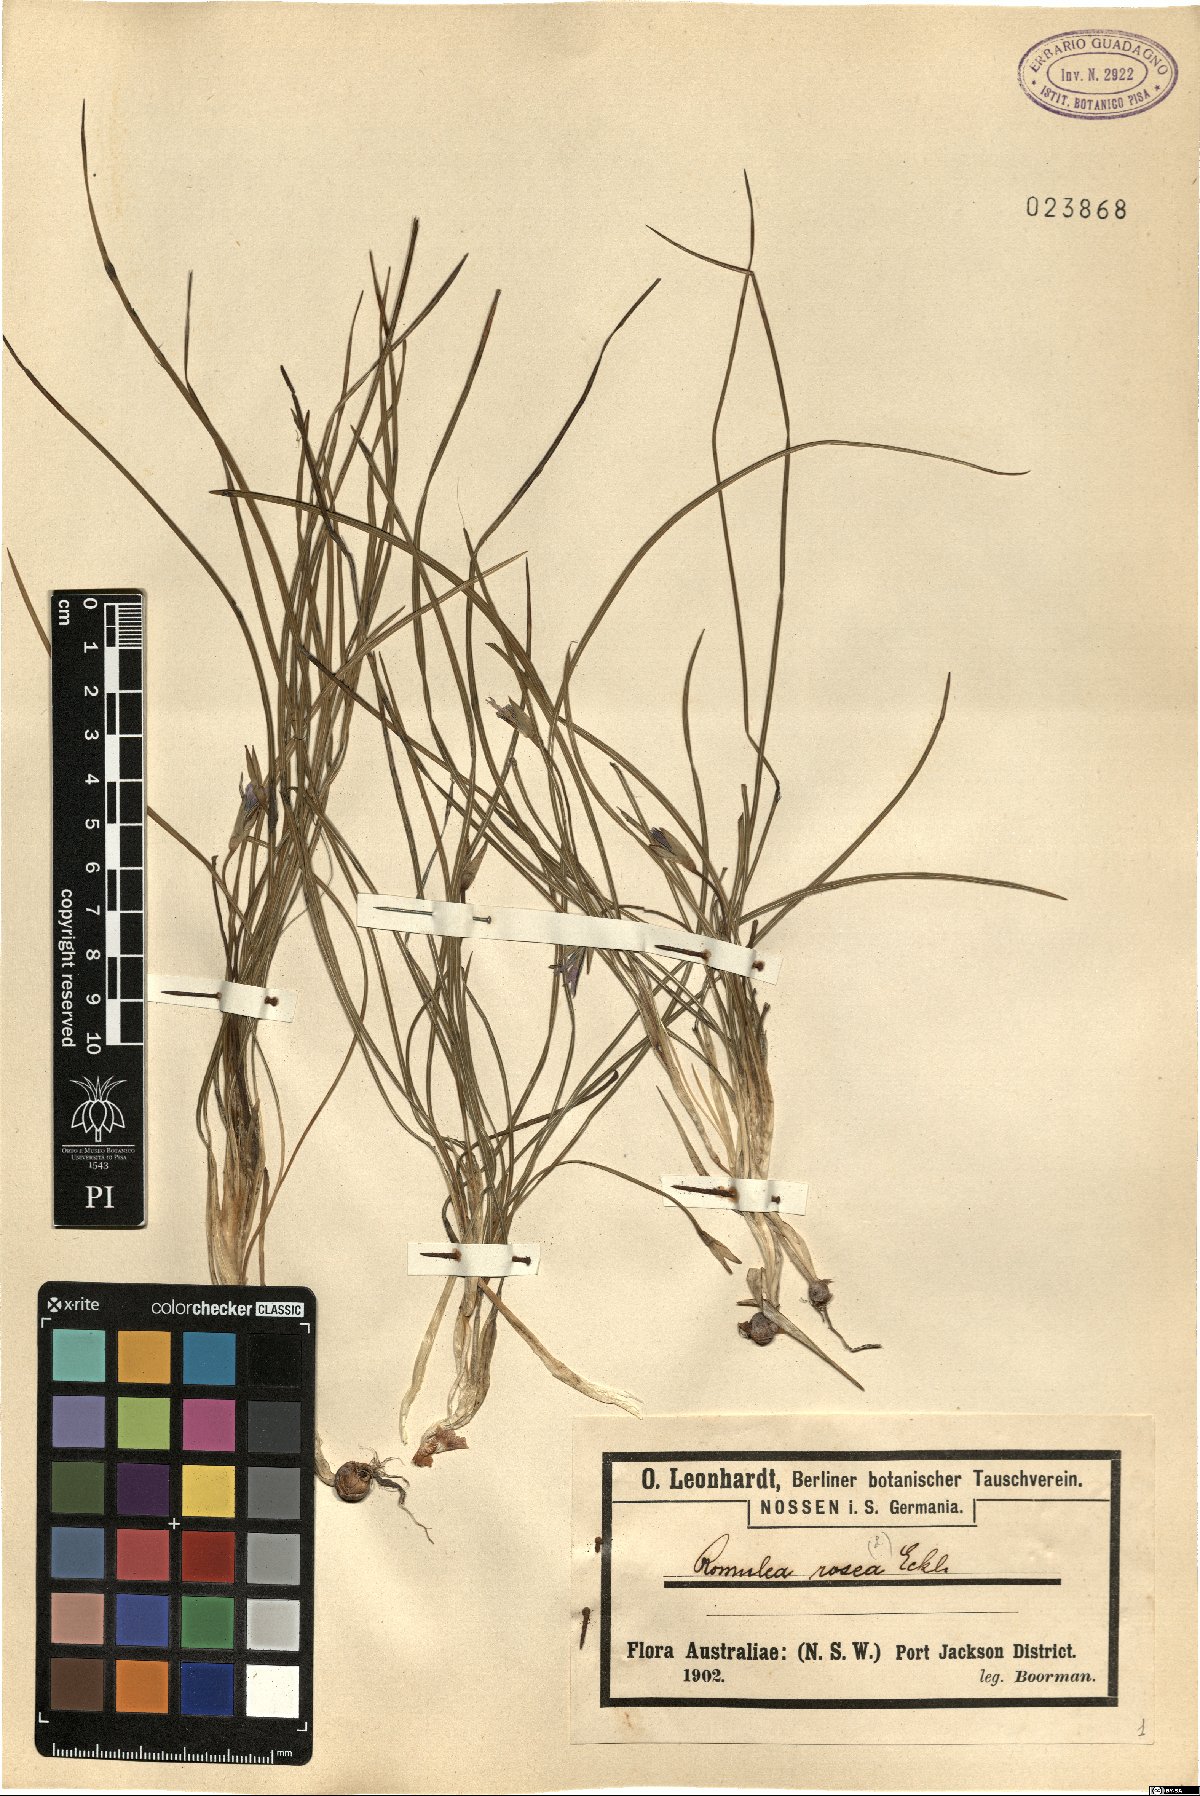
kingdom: Plantae
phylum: Tracheophyta
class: Liliopsida
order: Asparagales
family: Iridaceae
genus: Romulea
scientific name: Romulea rosea
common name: Oniongrass
